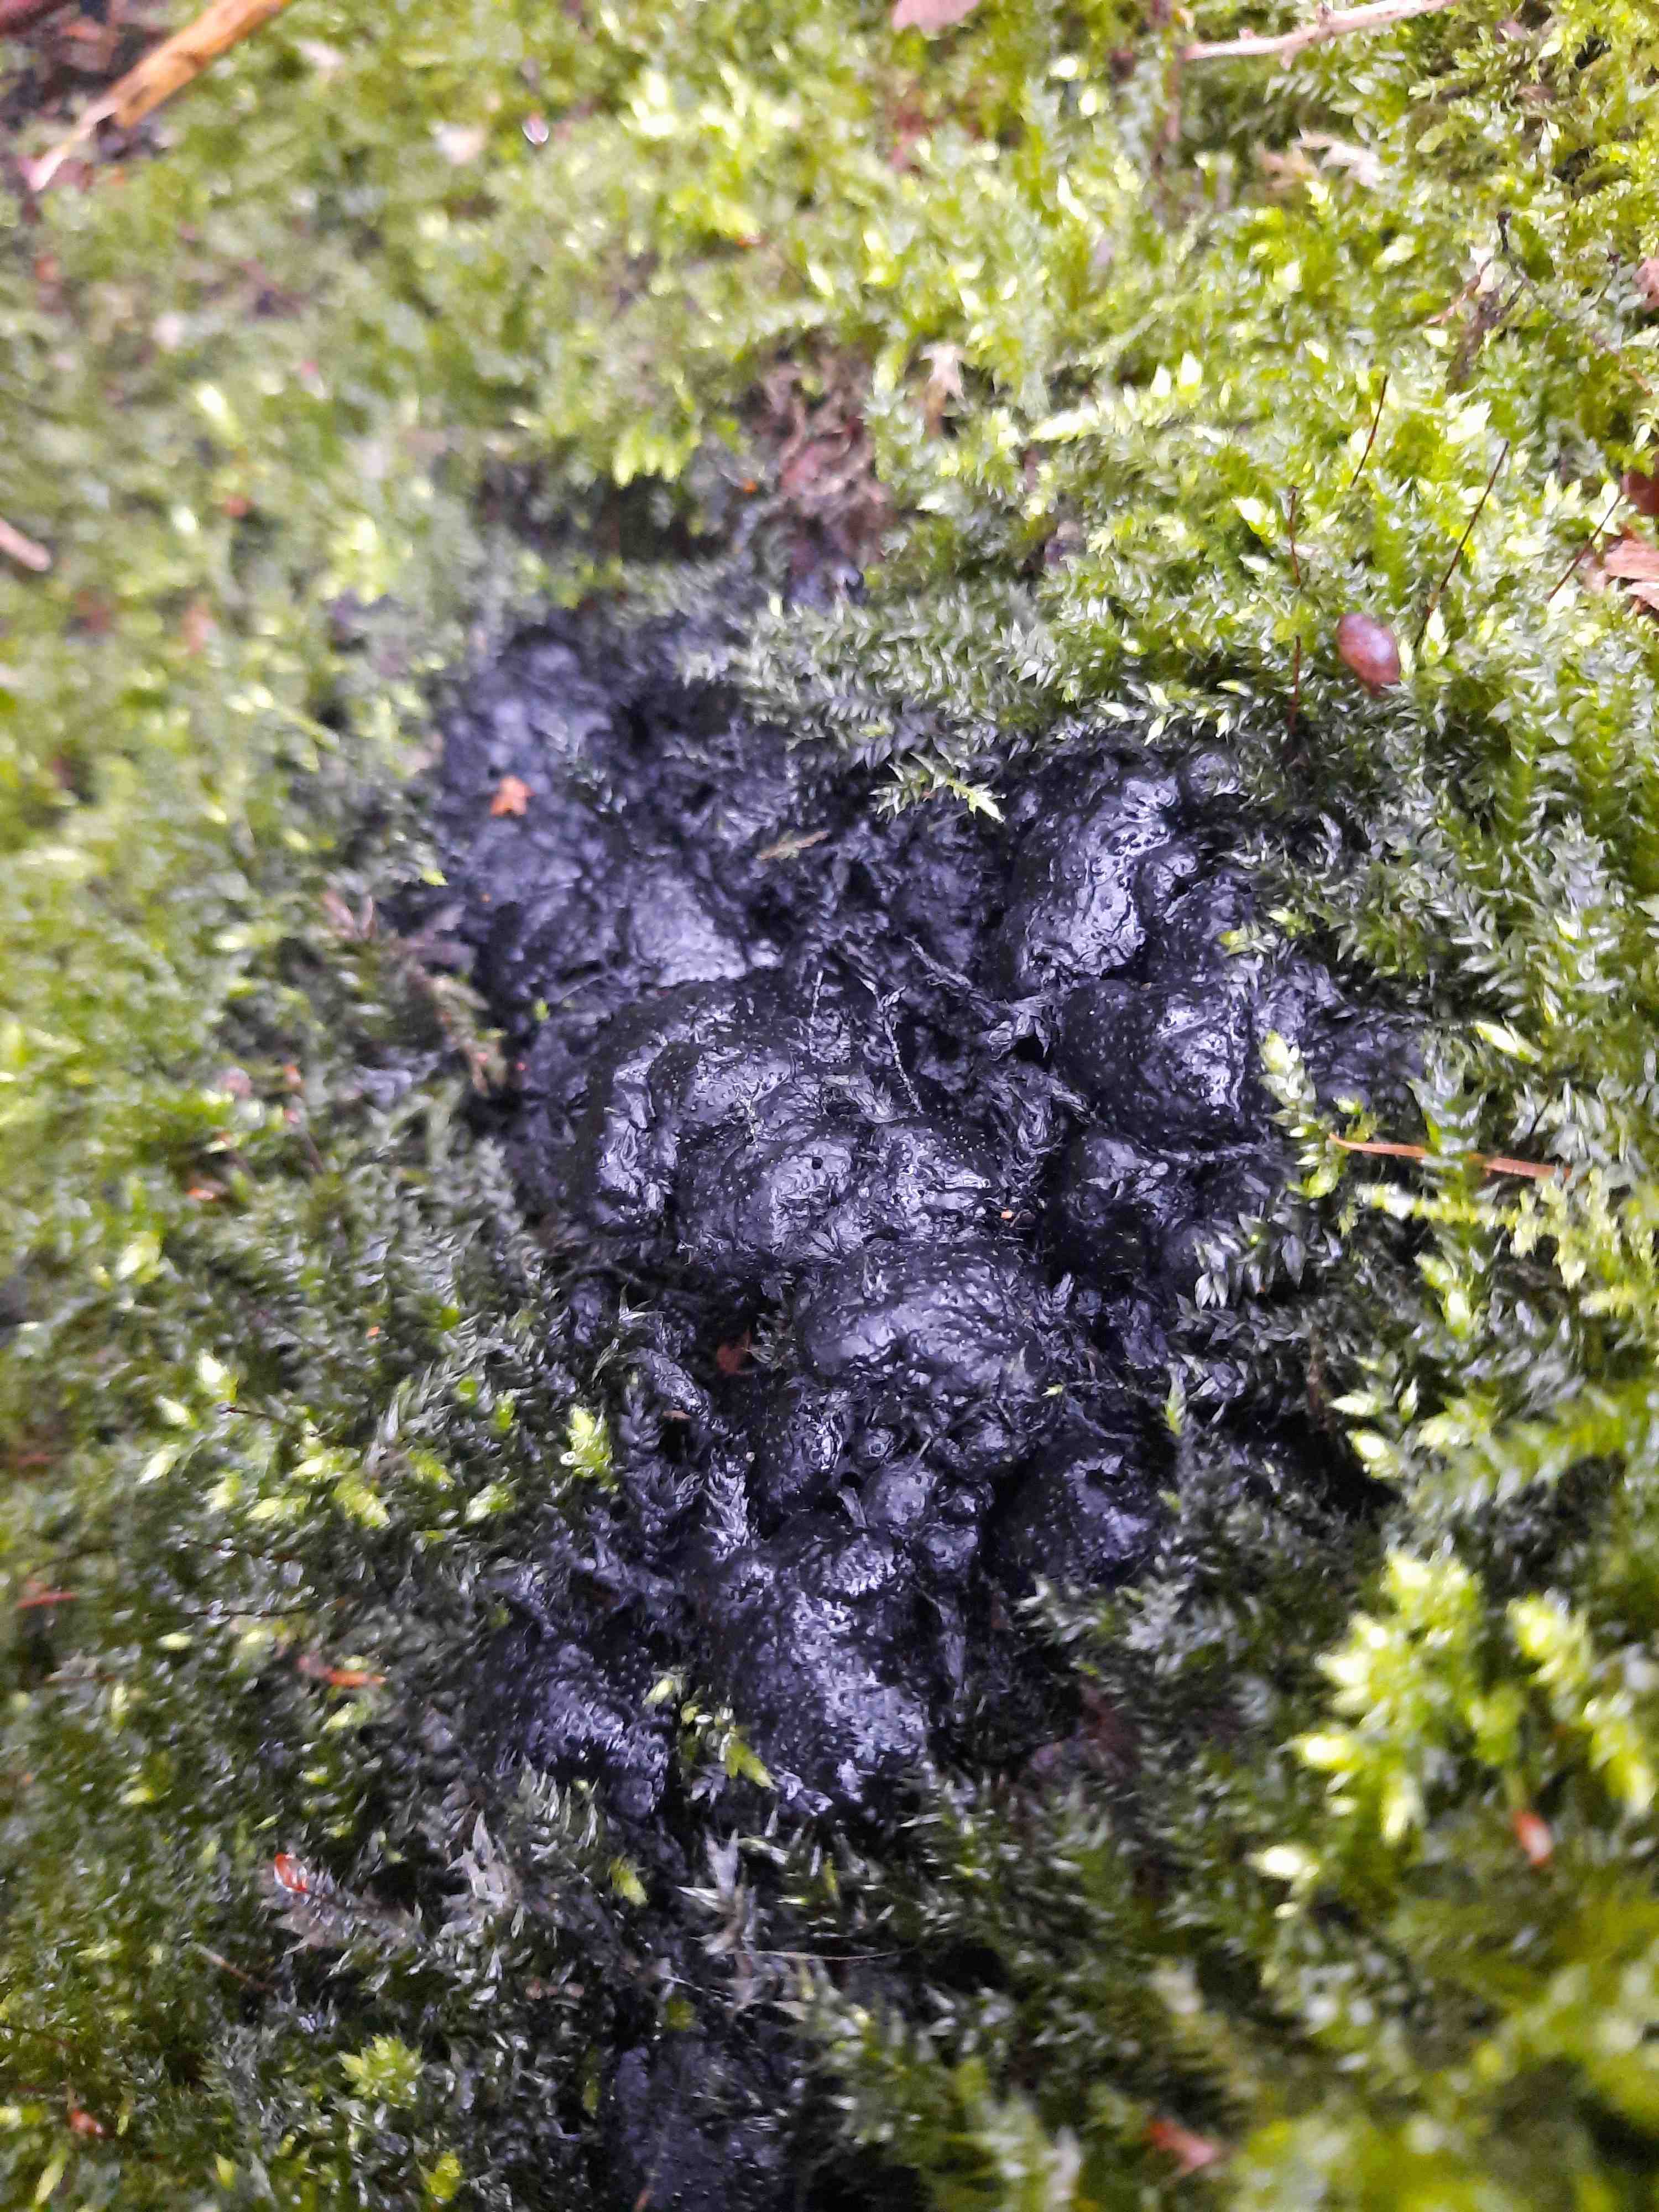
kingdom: Fungi
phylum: Ascomycota
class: Sordariomycetes
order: Xylariales
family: Xylariaceae
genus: Kretzschmaria
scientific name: Kretzschmaria deusta
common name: stor kulsvamp
